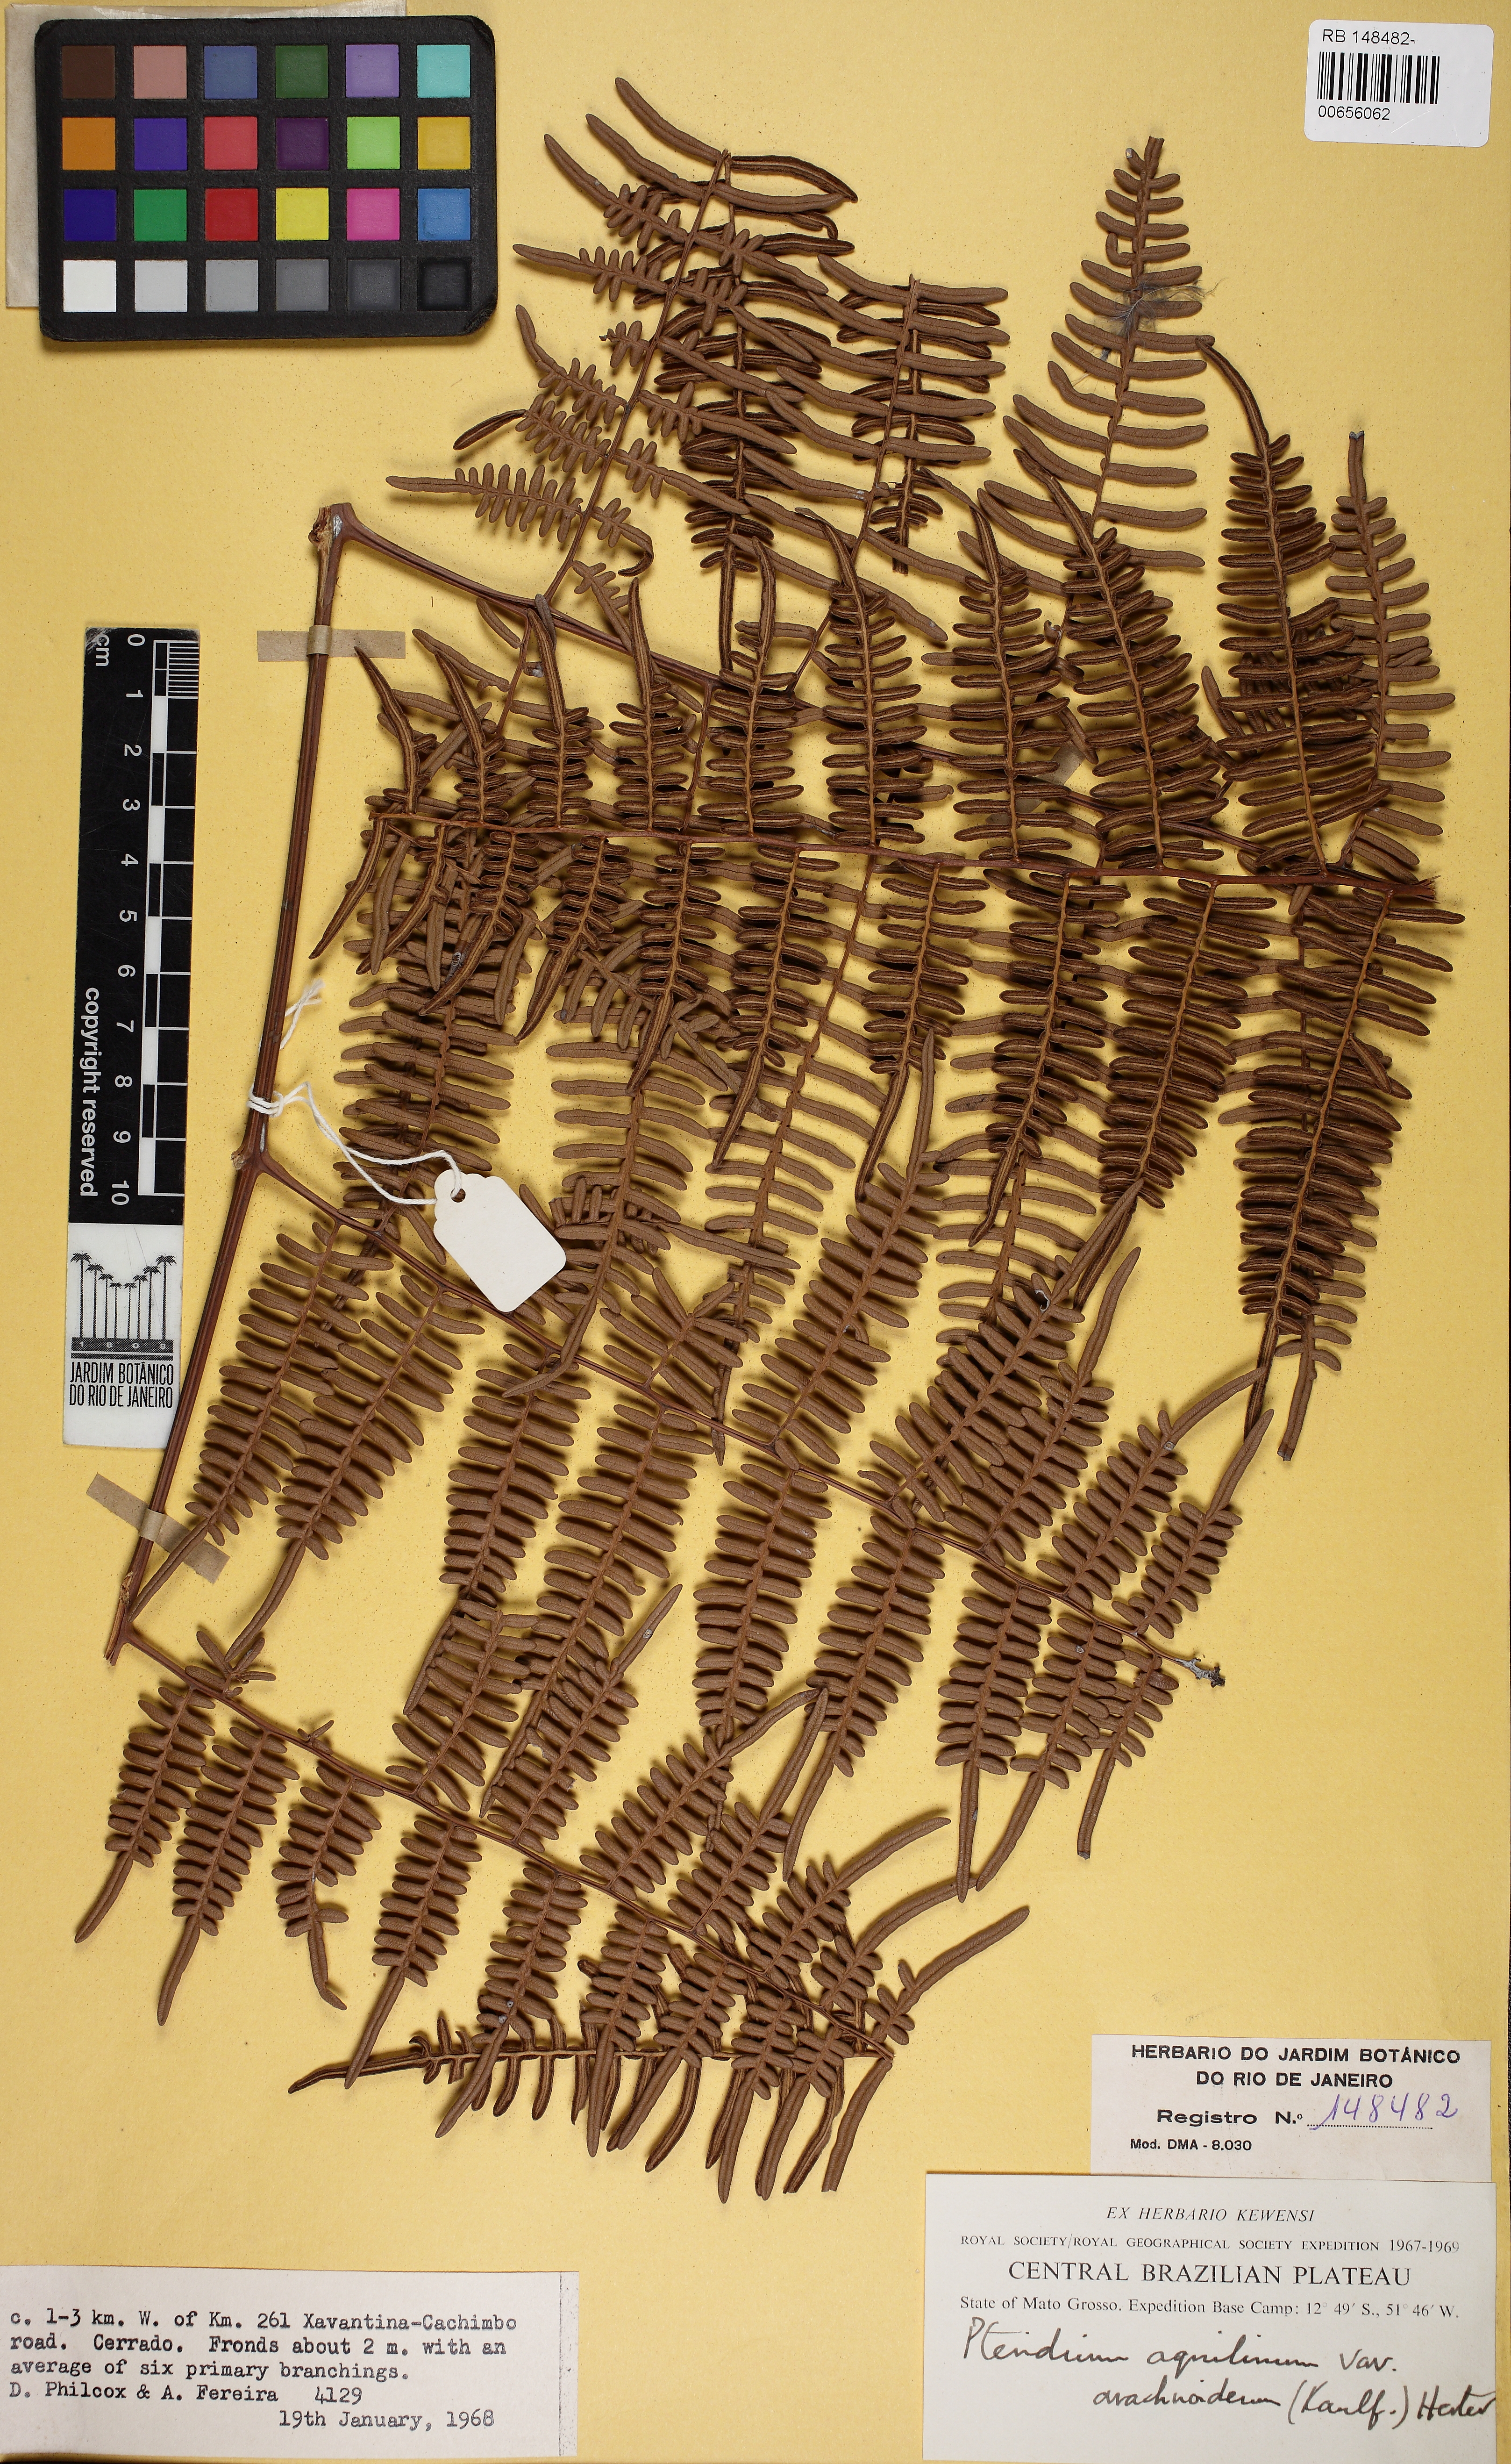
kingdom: Plantae
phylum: Tracheophyta
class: Polypodiopsida
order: Polypodiales
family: Dennstaedtiaceae
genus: Pteridium
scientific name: Pteridium esculentum
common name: Bracken fern
